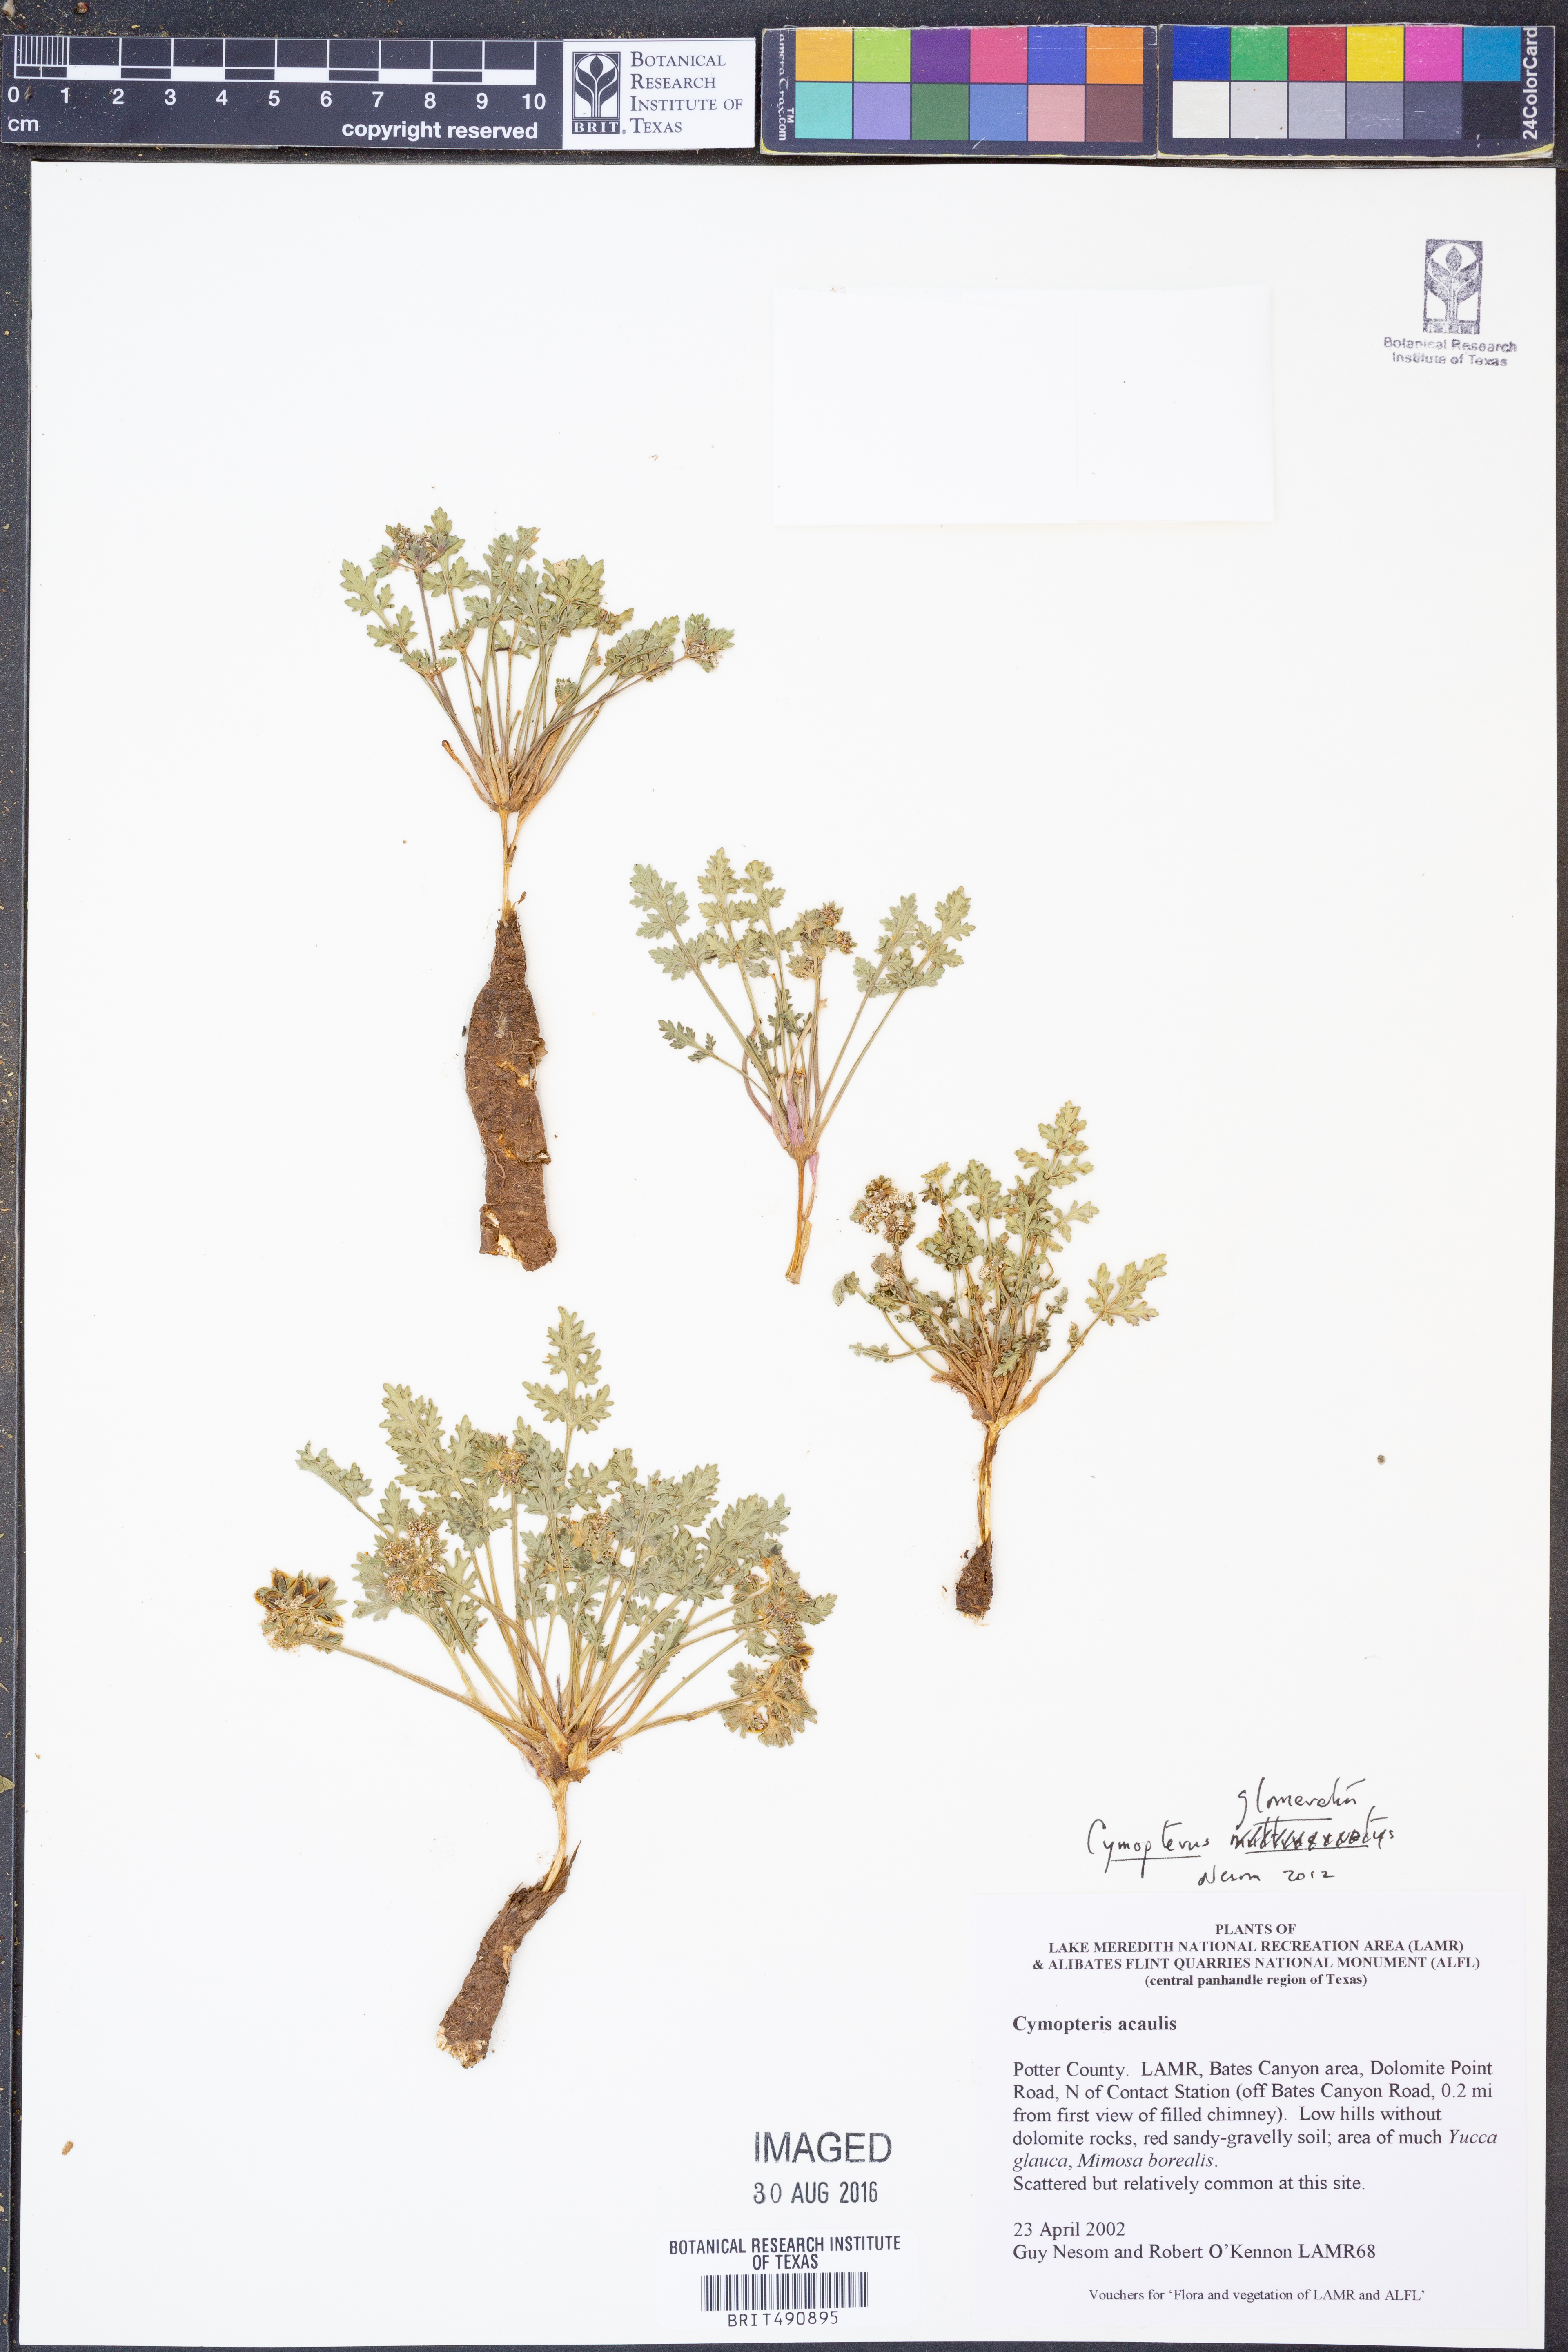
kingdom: Plantae
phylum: Tracheophyta
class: Magnoliopsida
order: Apiales
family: Apiaceae
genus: Cymopterus
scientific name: Cymopterus glomeratus
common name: Plains spring parsley
